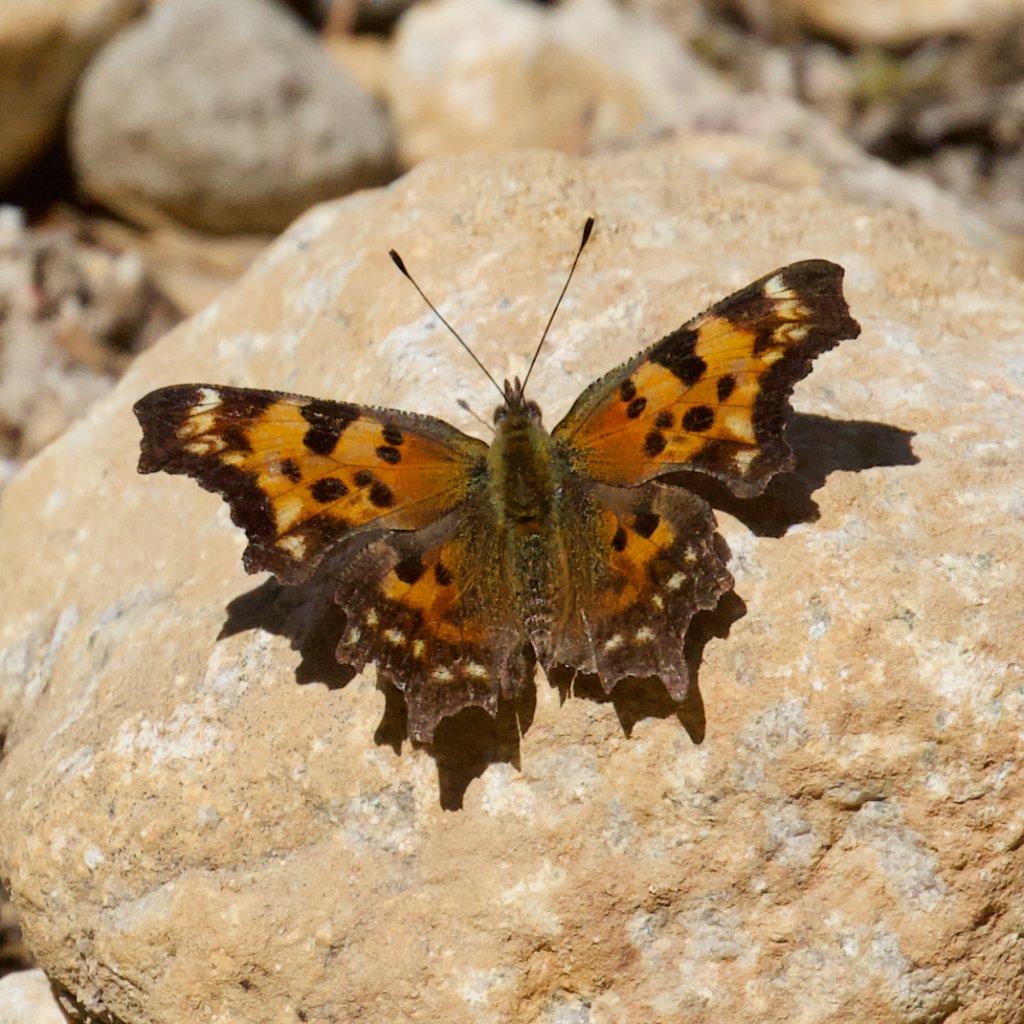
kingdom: Animalia
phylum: Arthropoda
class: Insecta
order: Lepidoptera
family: Nymphalidae
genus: Polygonia
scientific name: Polygonia faunus
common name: Green Comma
